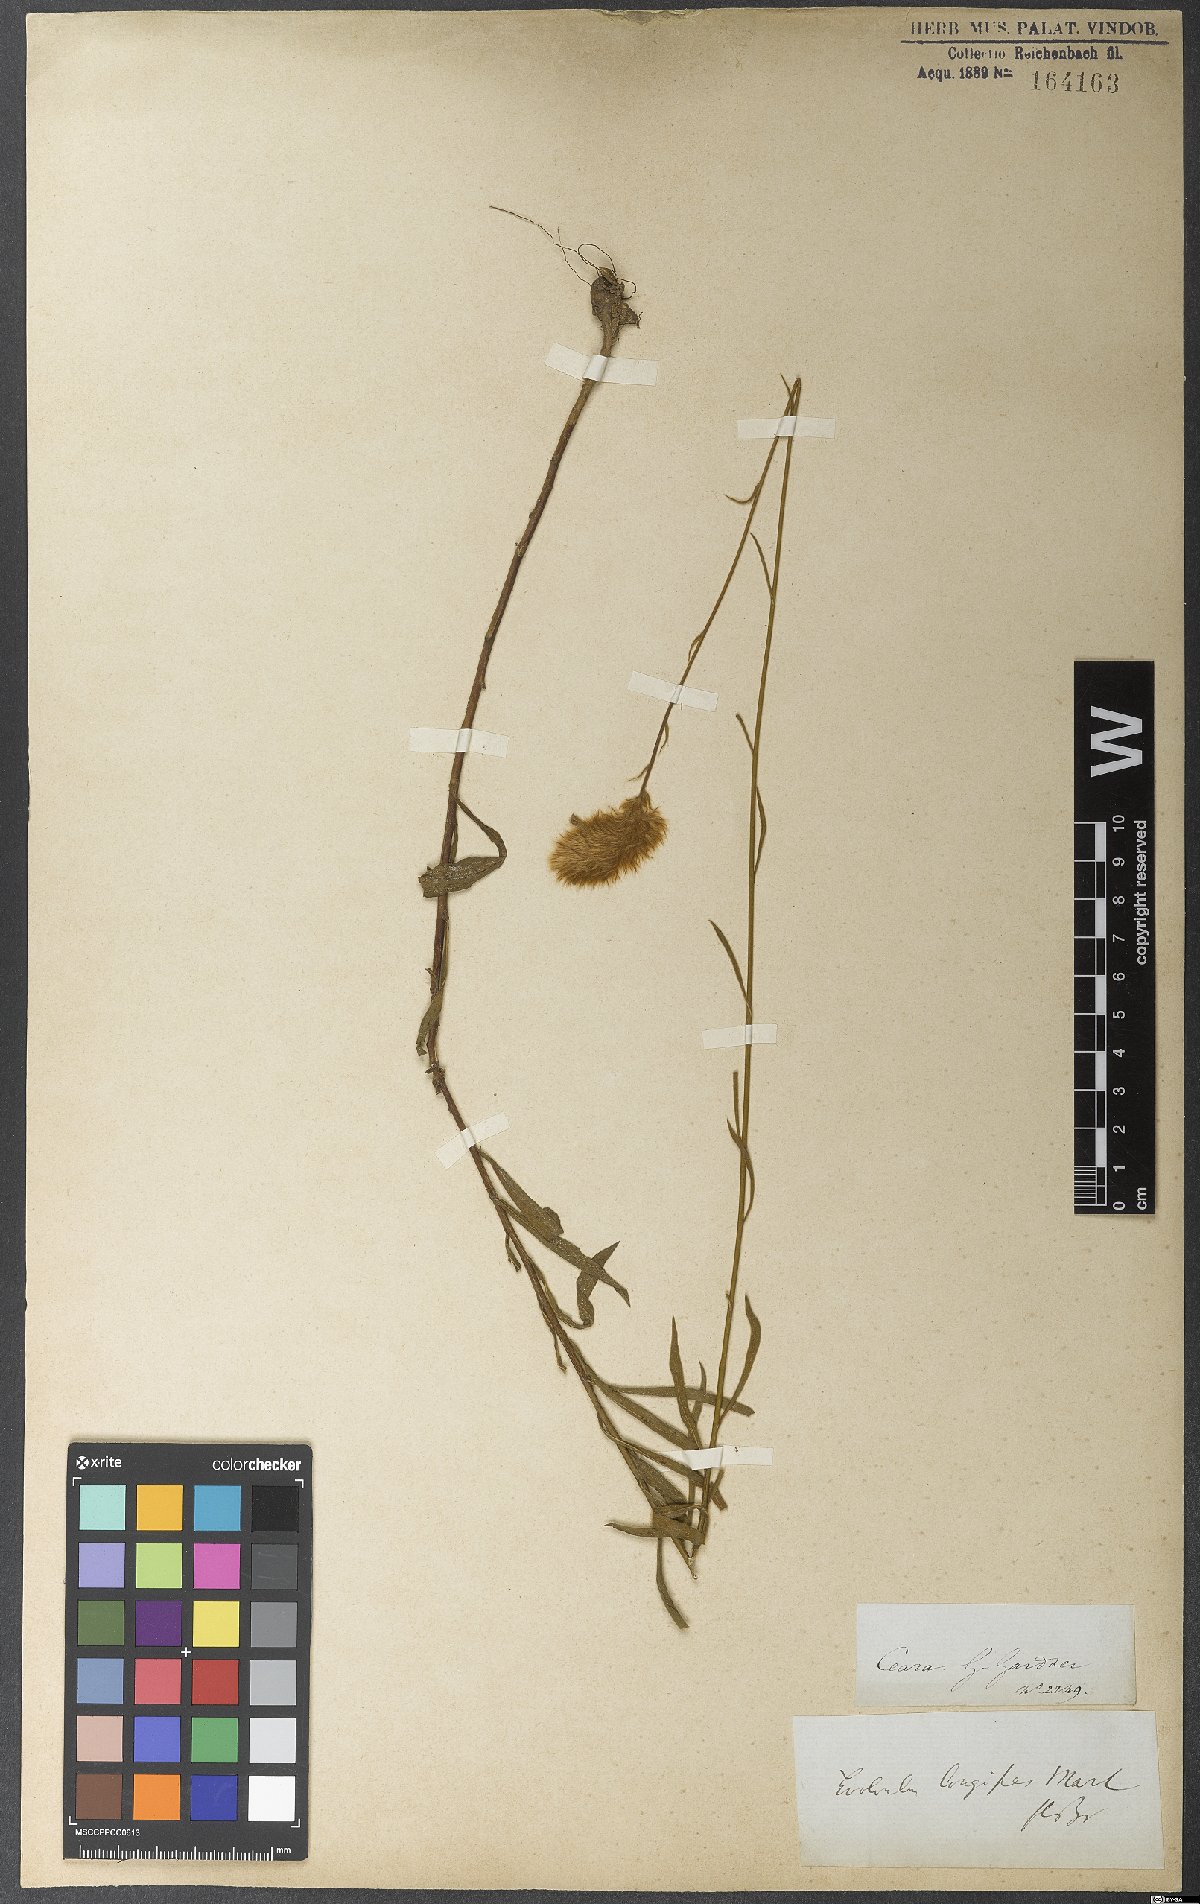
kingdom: Plantae
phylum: Tracheophyta
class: Magnoliopsida
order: Solanales
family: Convolvulaceae
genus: Evolvulus
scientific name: Evolvulus lagopus
